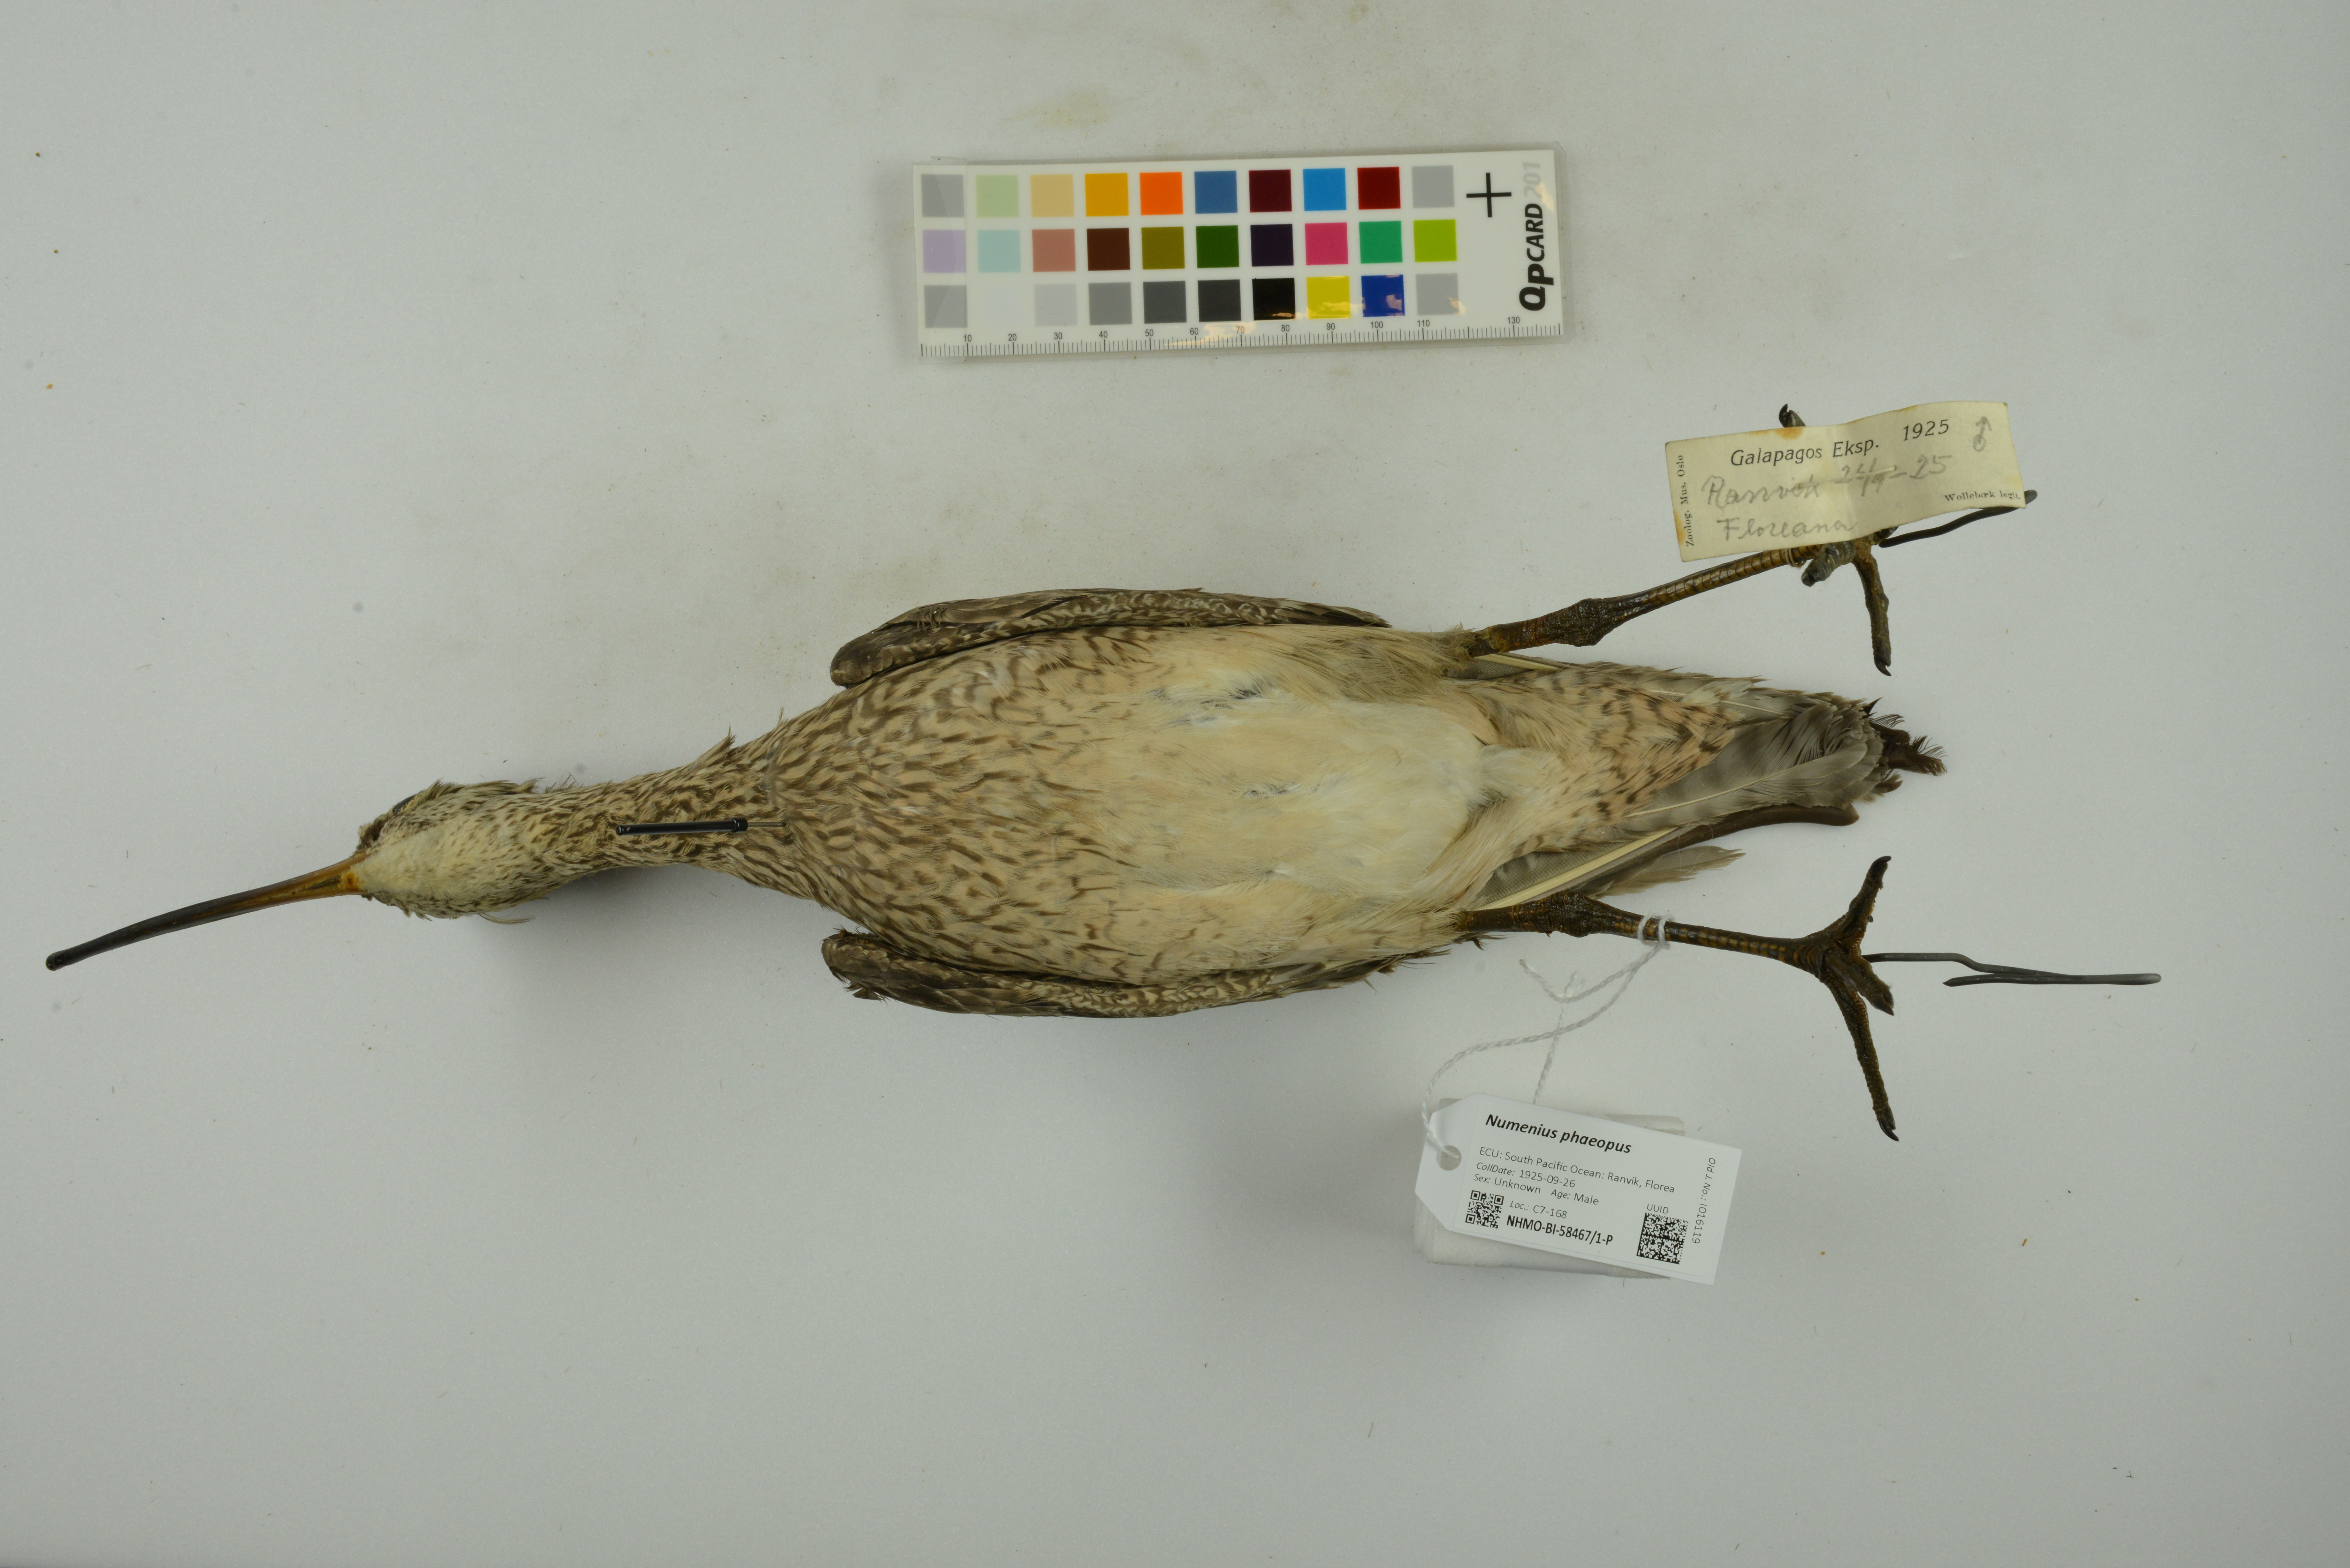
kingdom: Animalia
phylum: Chordata
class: Aves
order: Charadriiformes
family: Scolopacidae
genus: Numenius
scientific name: Numenius phaeopus
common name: Whimbrel
